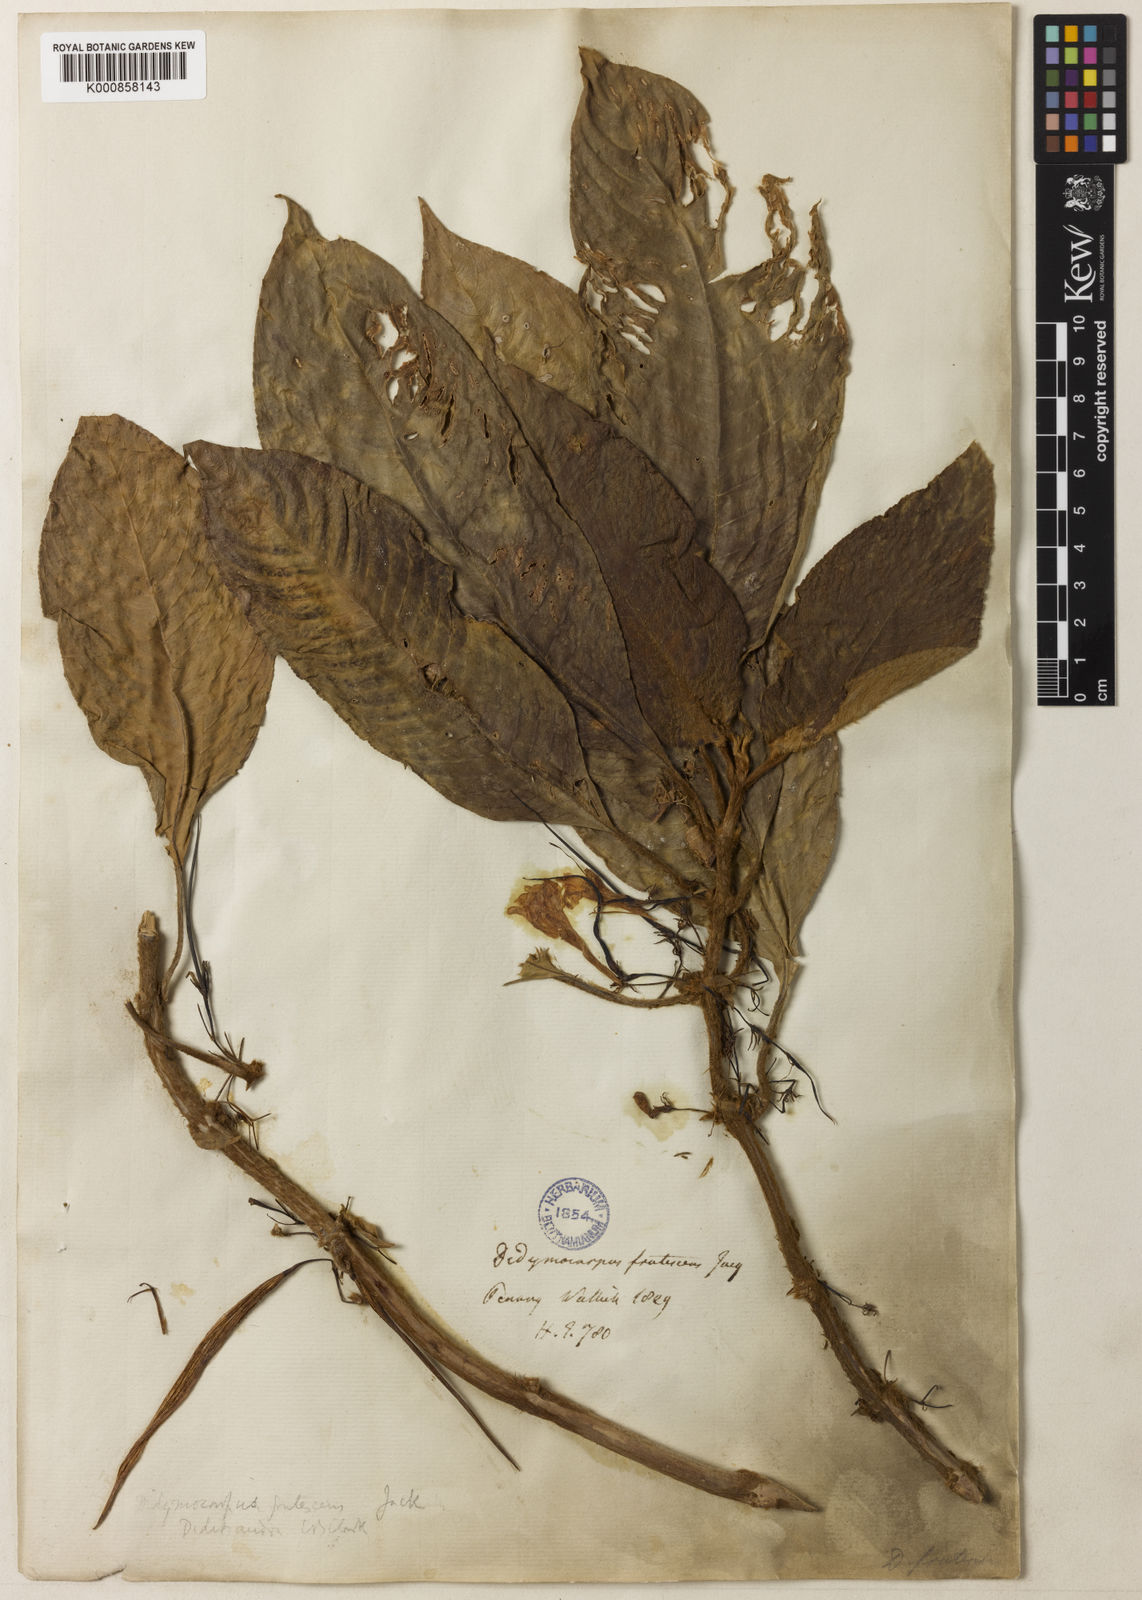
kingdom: Plantae
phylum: Tracheophyta
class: Magnoliopsida
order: Lamiales
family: Gesneriaceae
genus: Didissandra
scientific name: Didissandra frutescens
